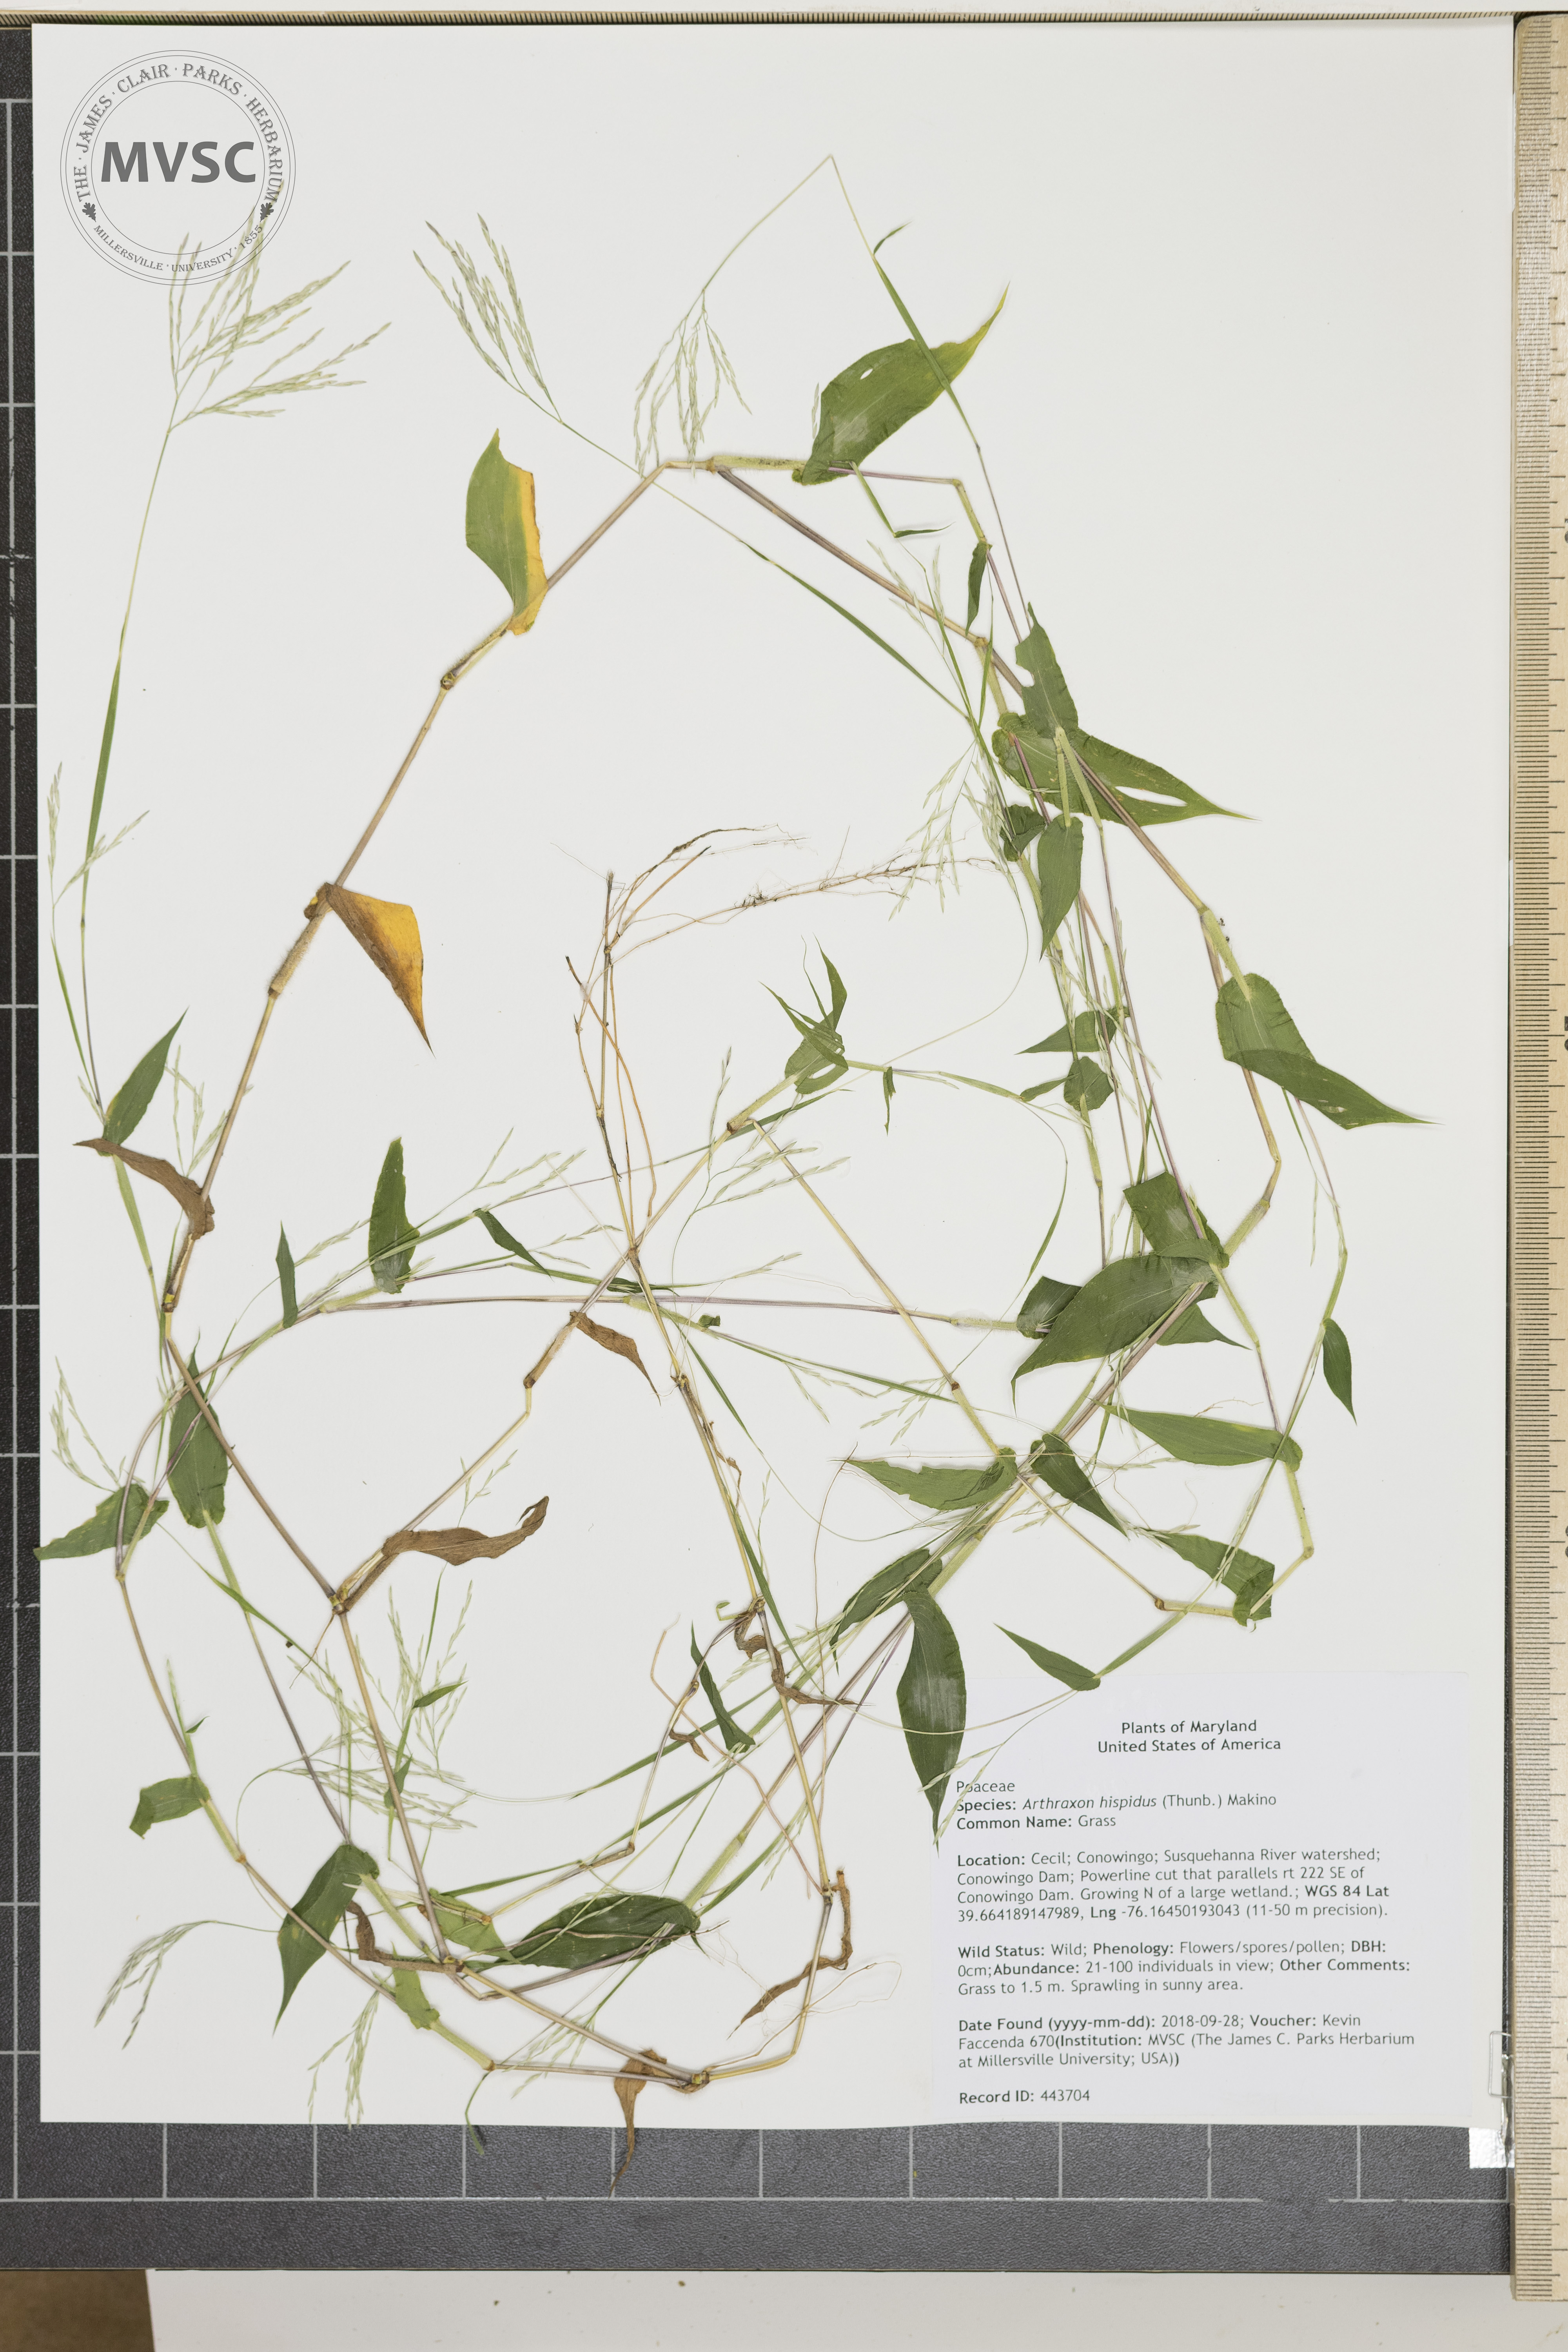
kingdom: Plantae
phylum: Tracheophyta
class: Liliopsida
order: Poales
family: Poaceae
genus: Arthraxon
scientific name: Arthraxon hispidus
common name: Grass
